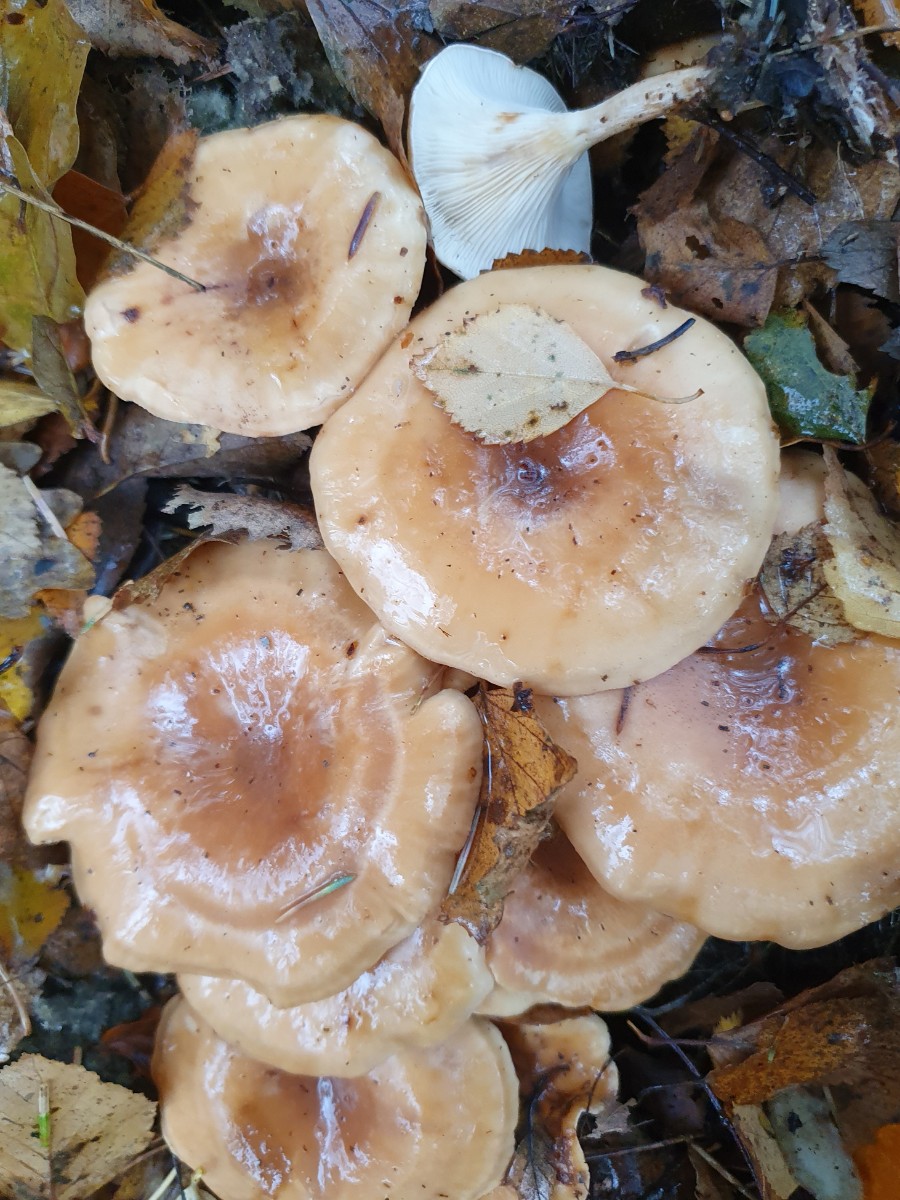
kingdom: Fungi
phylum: Basidiomycota
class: Agaricomycetes
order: Agaricales
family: Tricholomataceae
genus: Paralepista
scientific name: Paralepista flaccida
